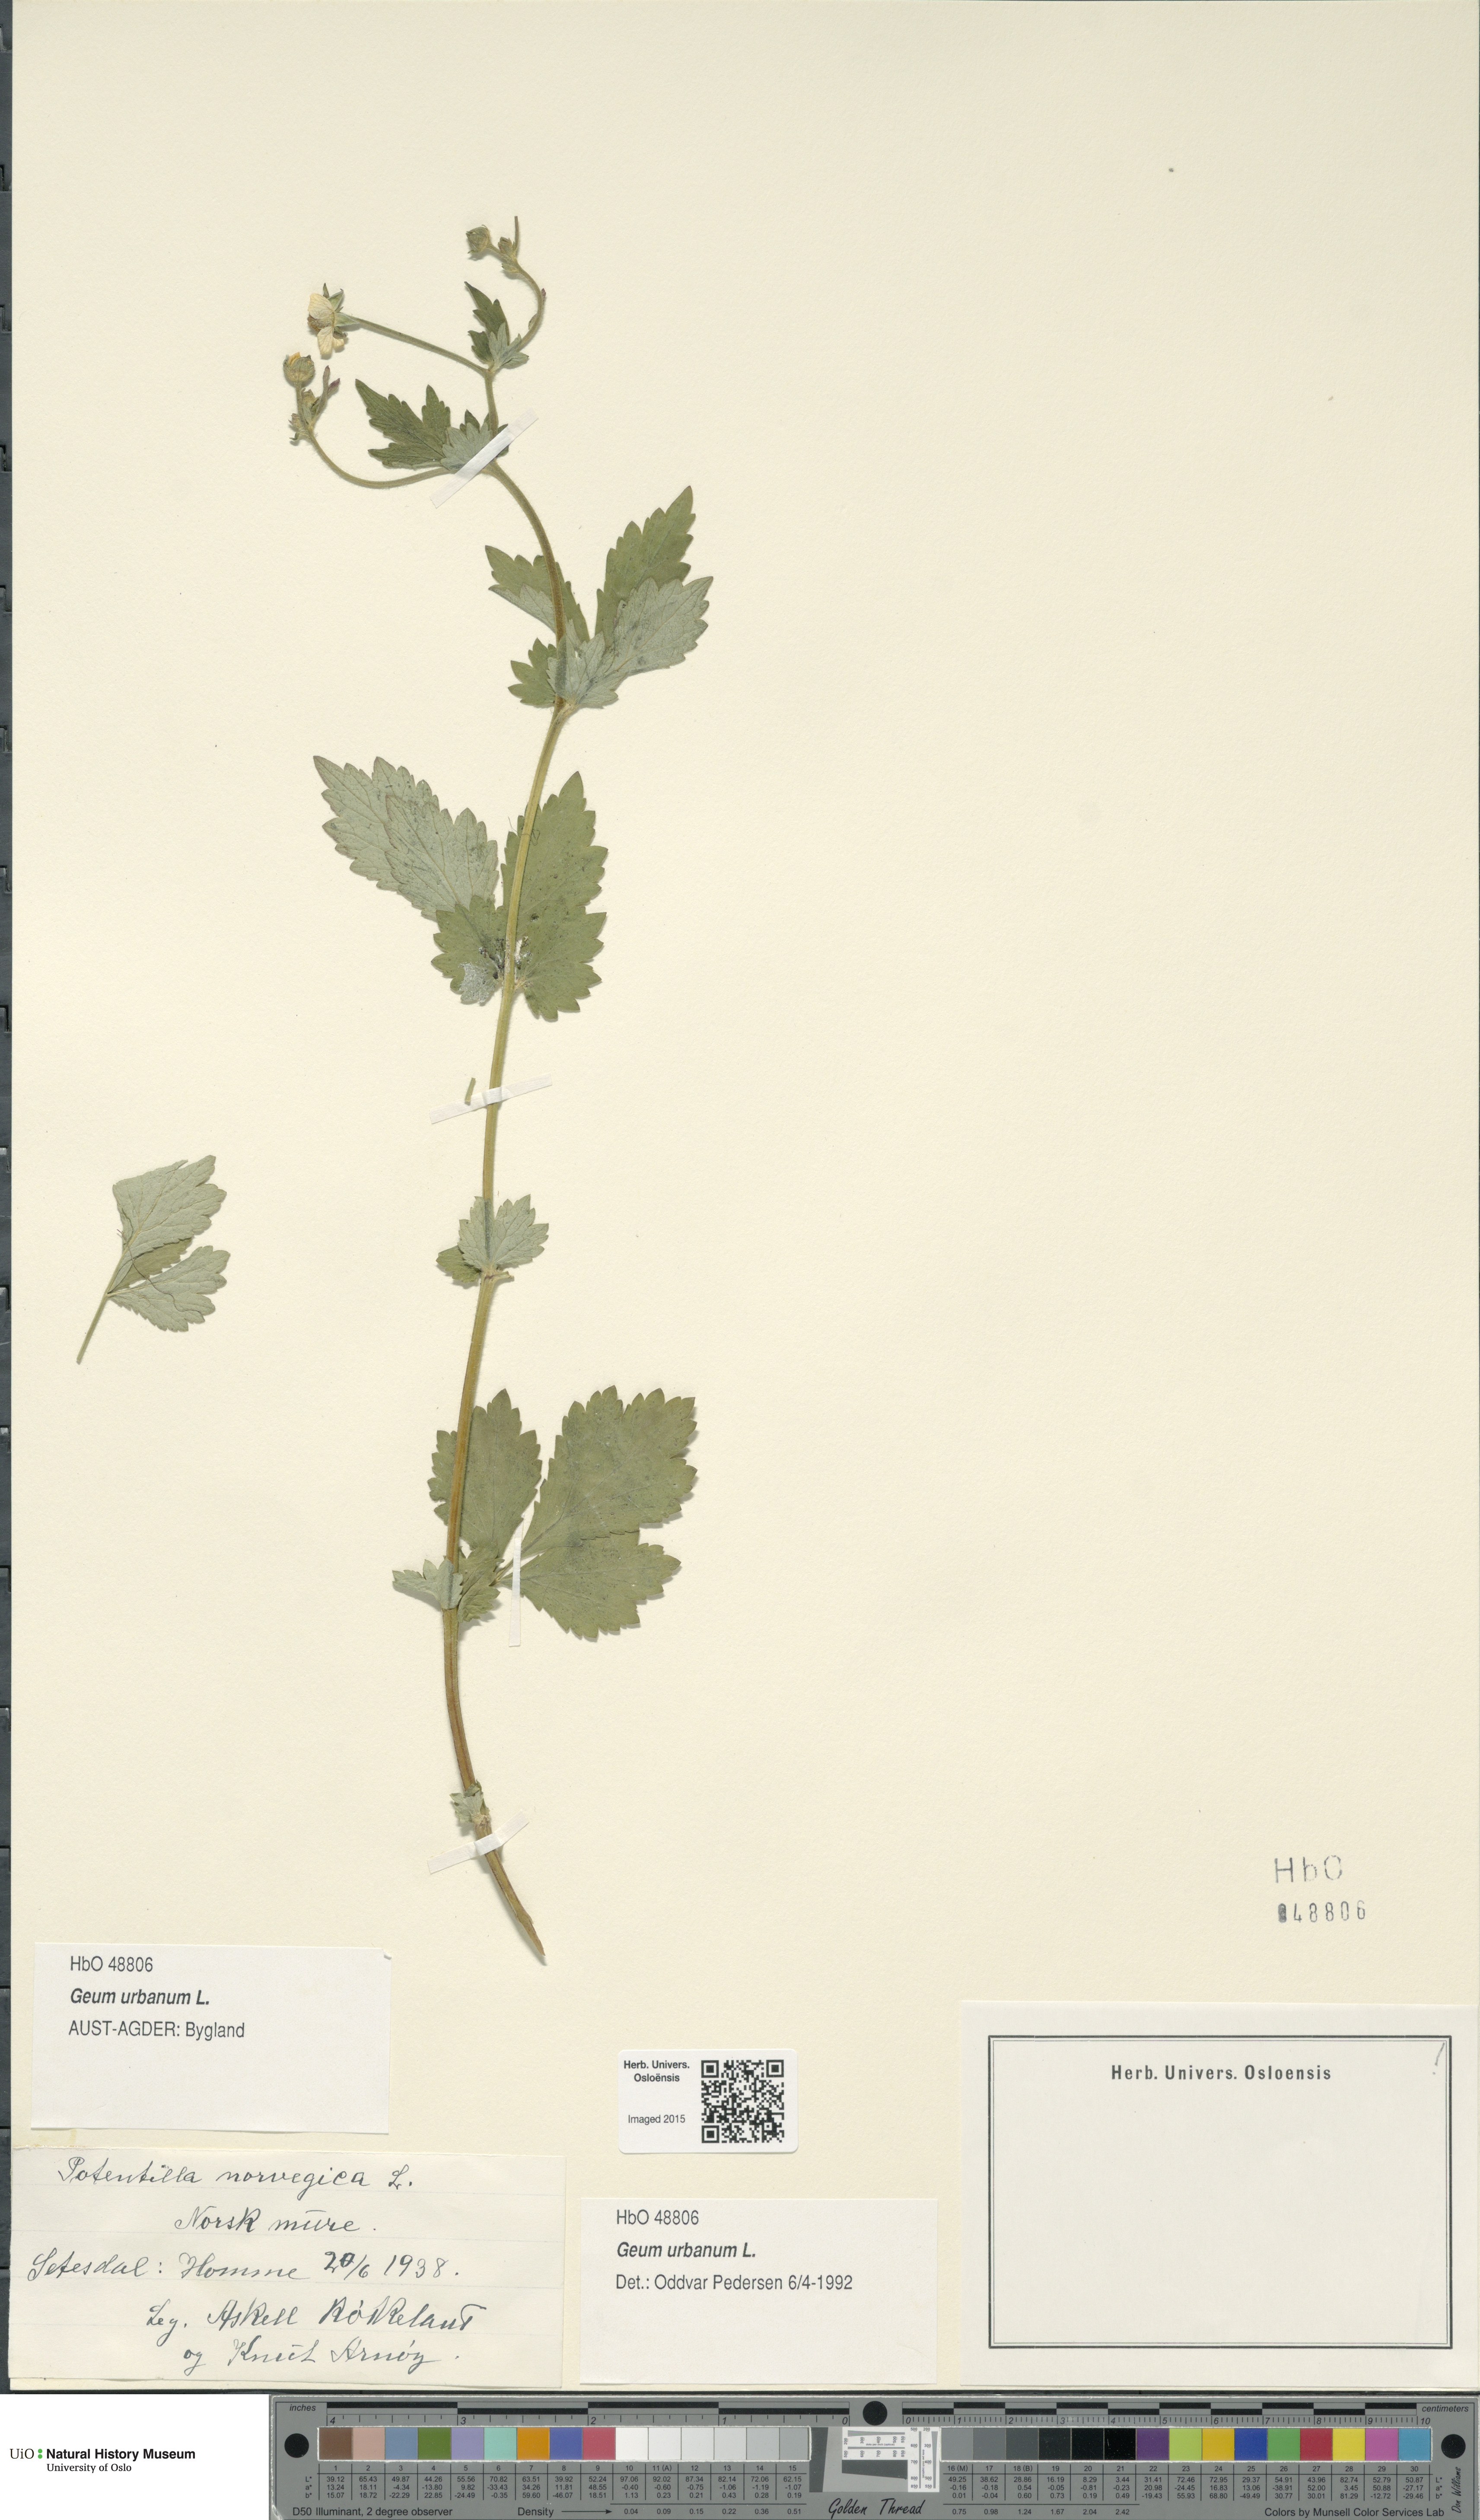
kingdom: Plantae
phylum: Tracheophyta
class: Magnoliopsida
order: Rosales
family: Rosaceae
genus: Geum
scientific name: Geum urbanum
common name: Wood avens
